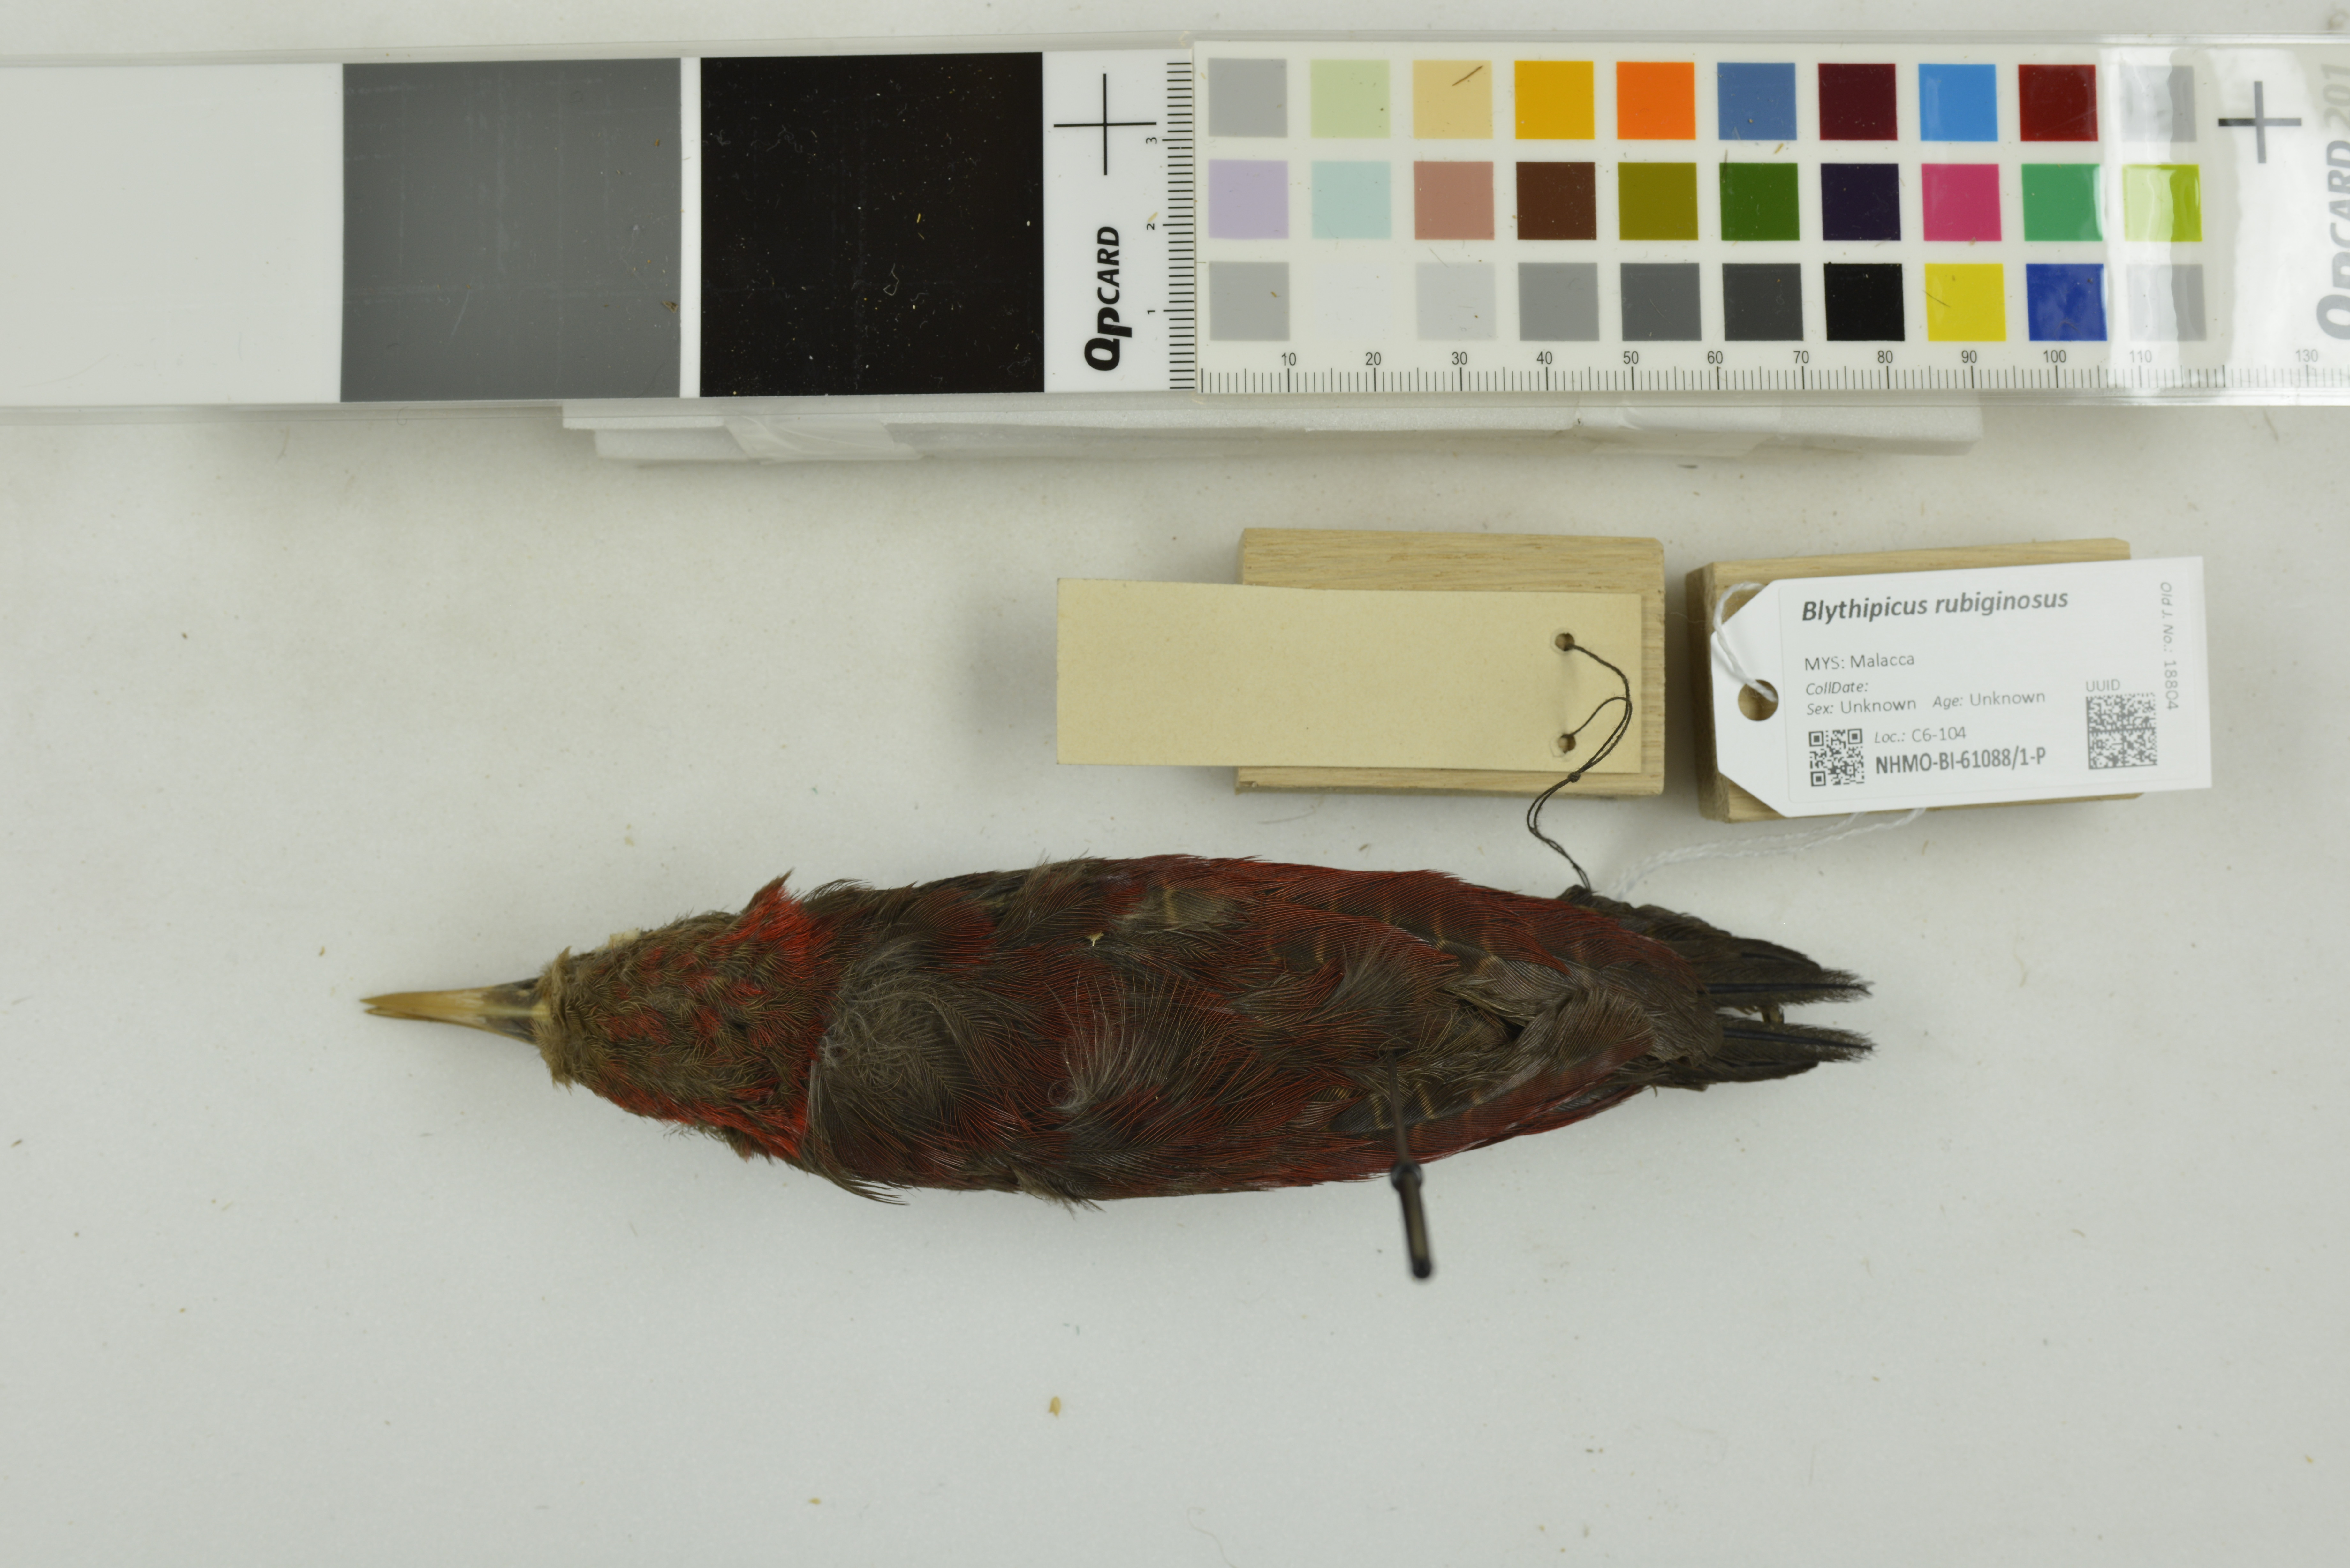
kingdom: Animalia
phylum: Chordata
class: Aves
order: Piciformes
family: Picidae
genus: Blythipicus
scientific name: Blythipicus rubiginosus
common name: Maroon woodpecker
